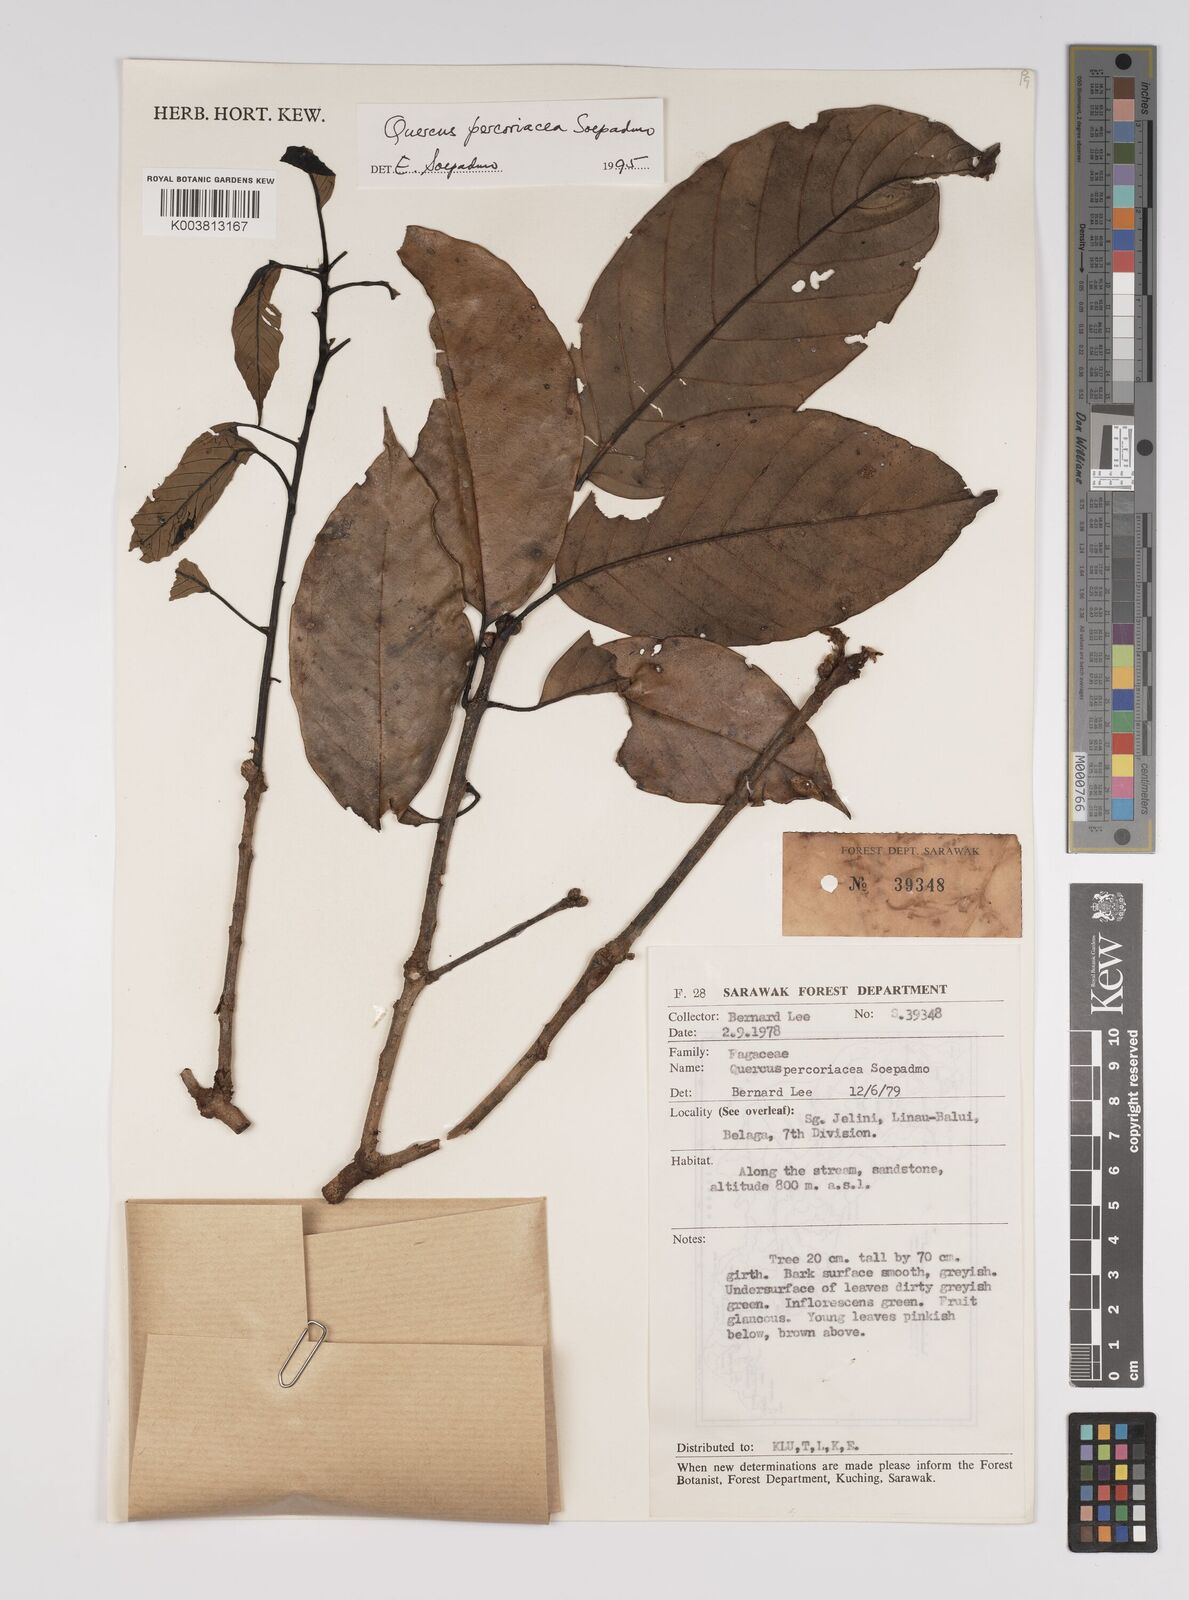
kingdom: Plantae
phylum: Tracheophyta
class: Magnoliopsida
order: Fagales
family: Fagaceae
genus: Quercus
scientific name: Quercus percoriacea
